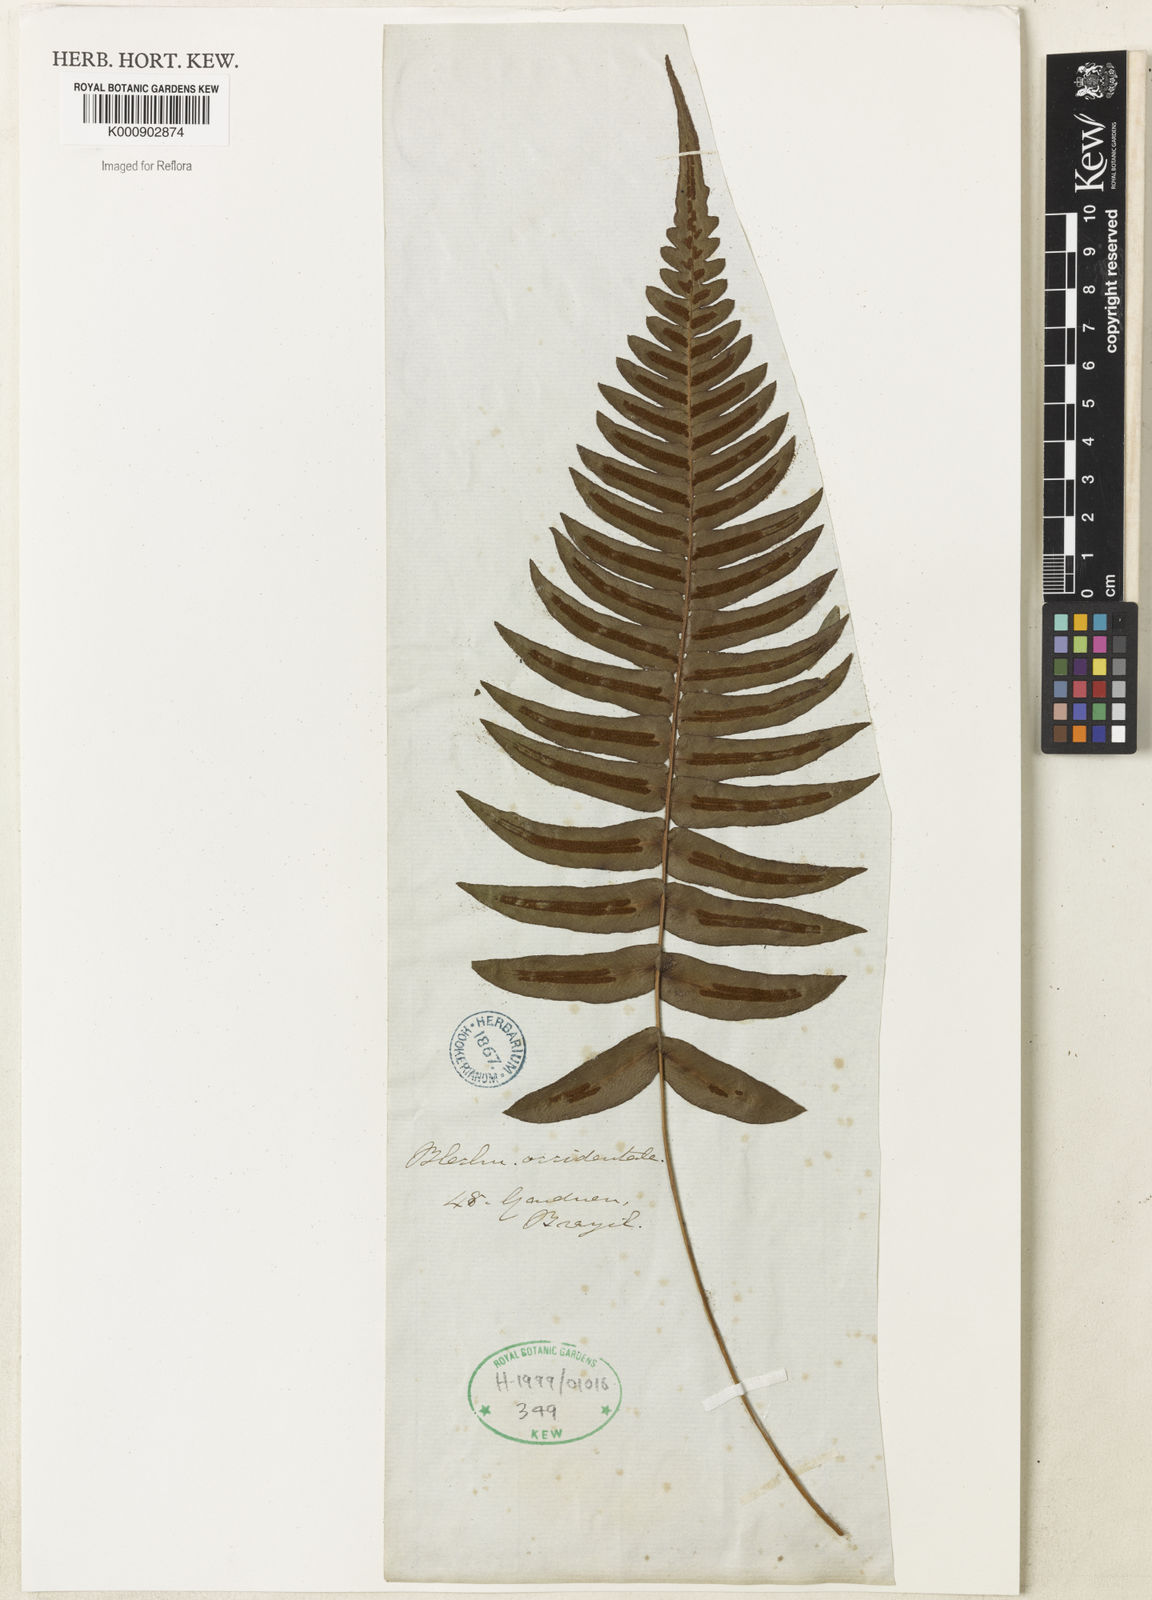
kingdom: Plantae
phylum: Tracheophyta
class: Polypodiopsida
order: Polypodiales
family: Blechnaceae
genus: Blechnum
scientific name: Blechnum occidentale
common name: Hammock fern
